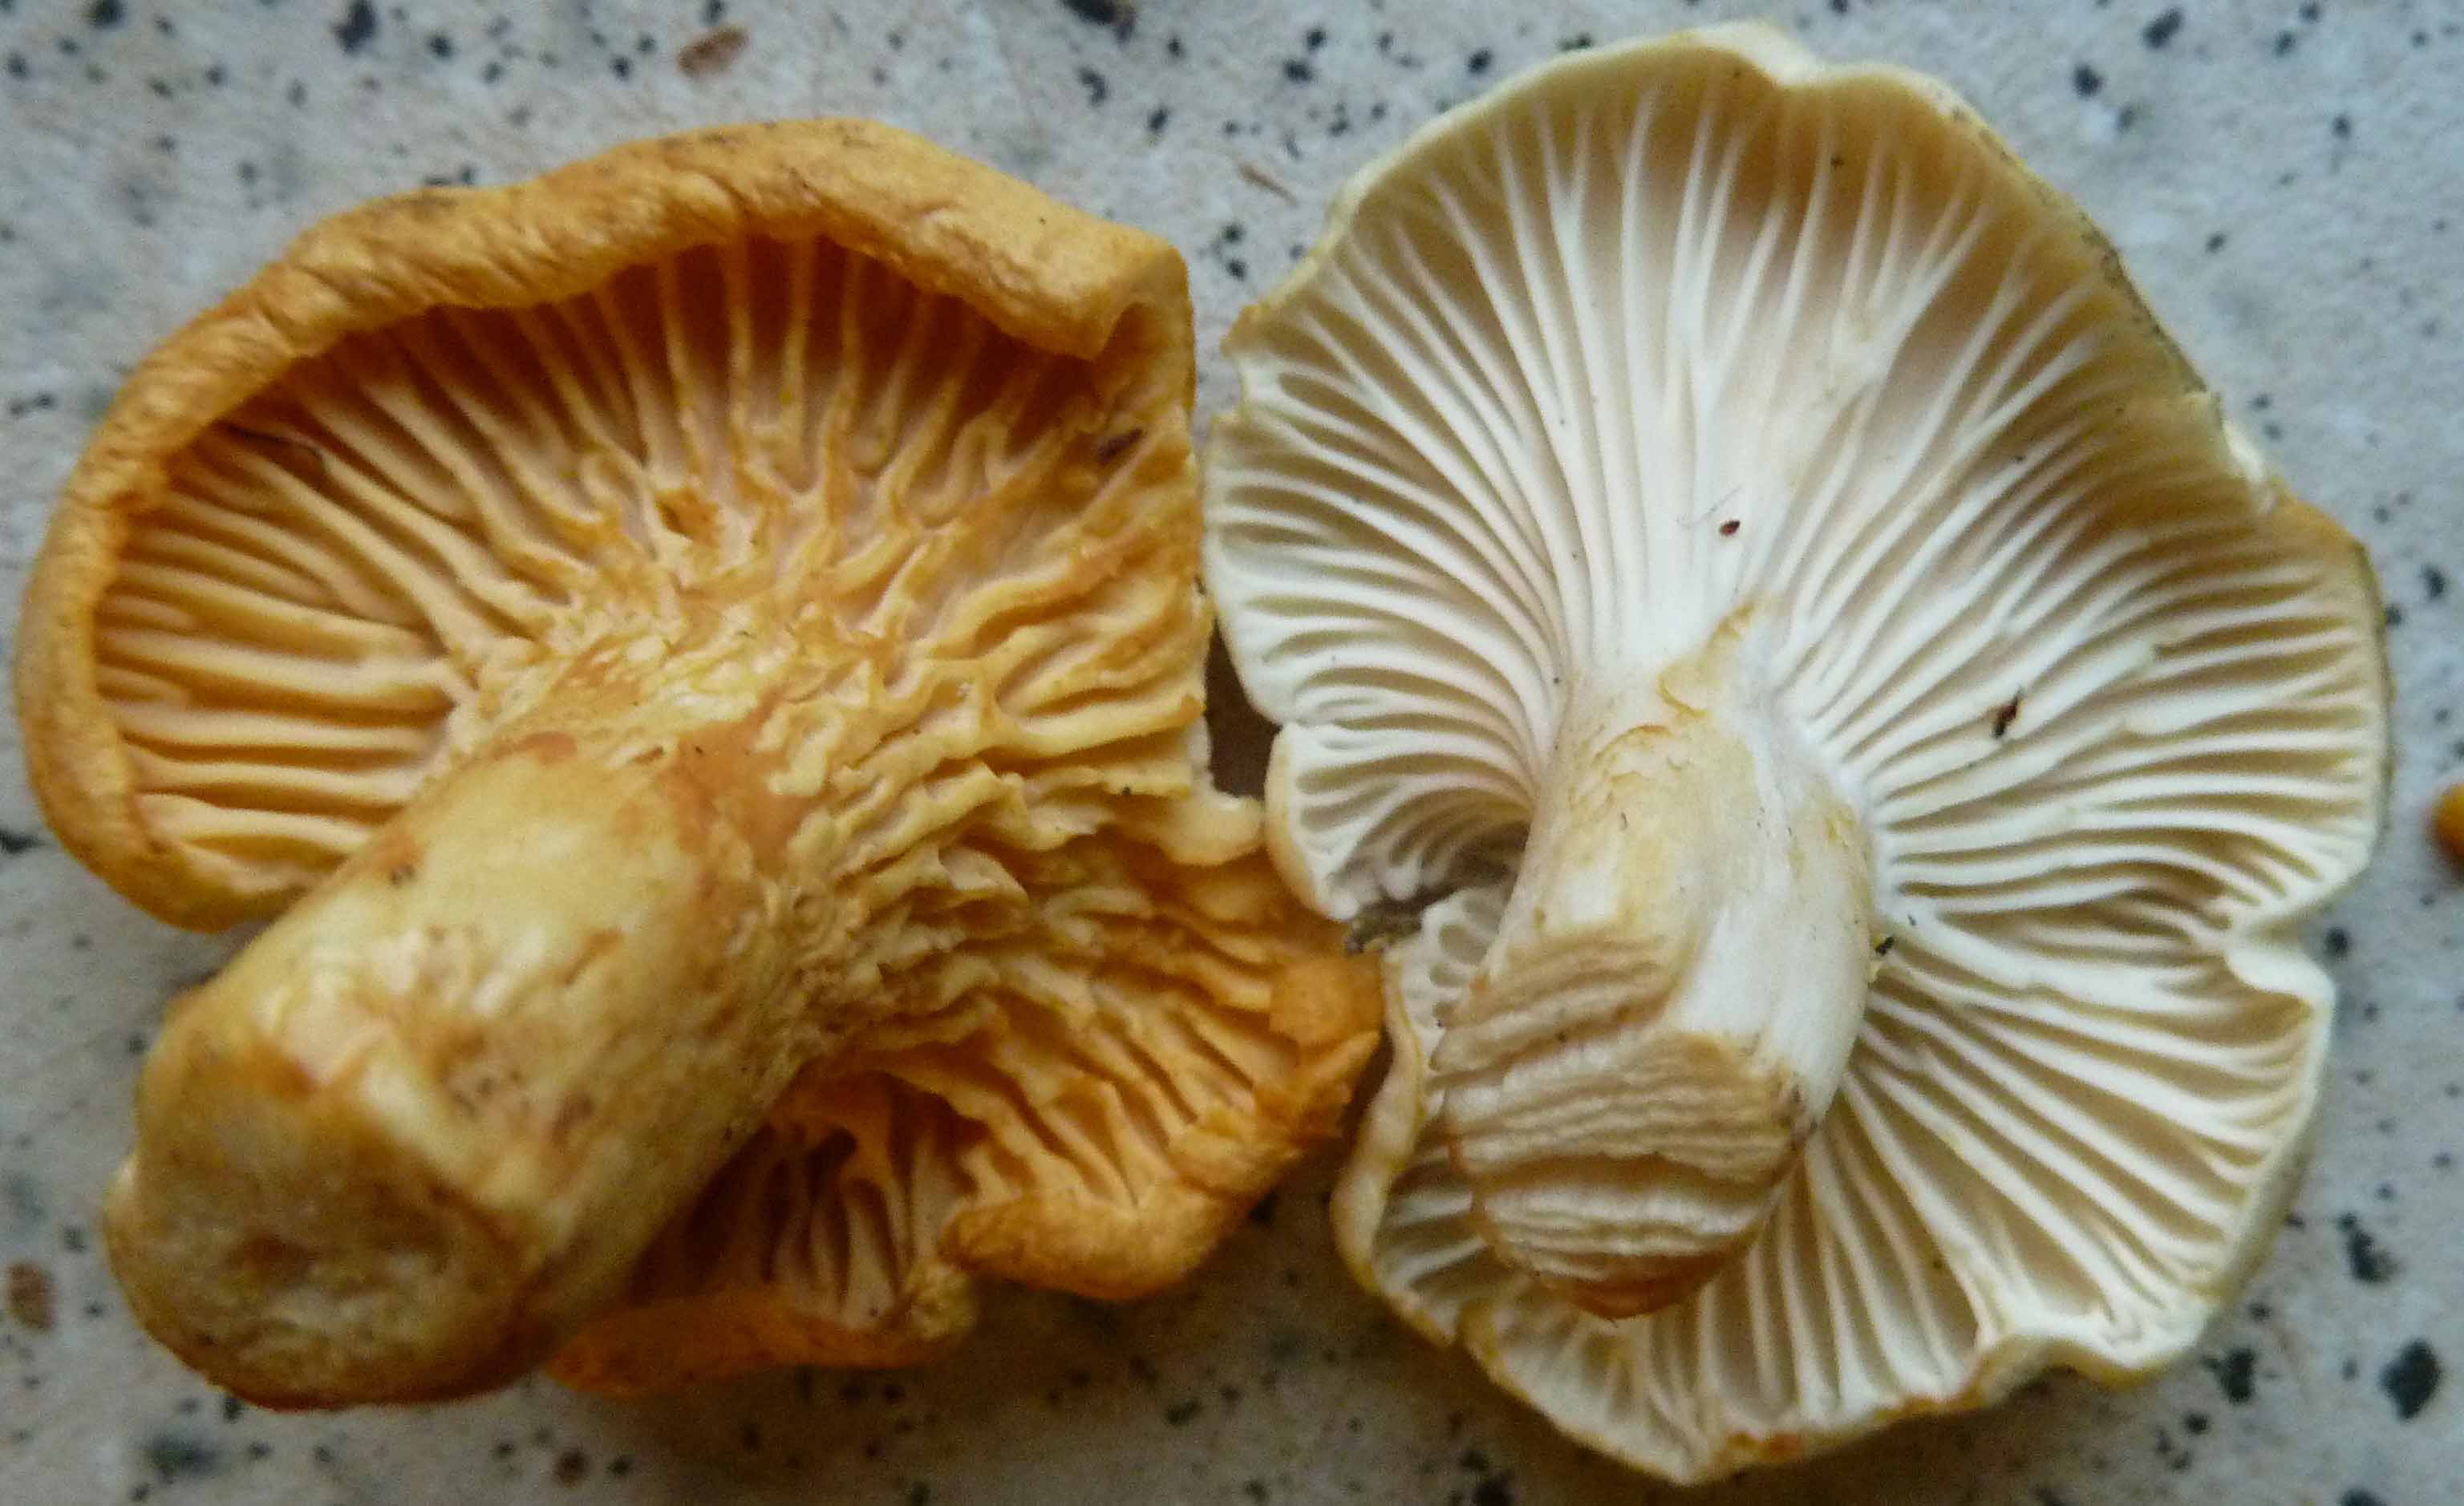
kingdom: Fungi
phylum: Basidiomycota
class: Agaricomycetes
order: Cantharellales
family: Hydnaceae
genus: Cantharellus
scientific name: Cantharellus
